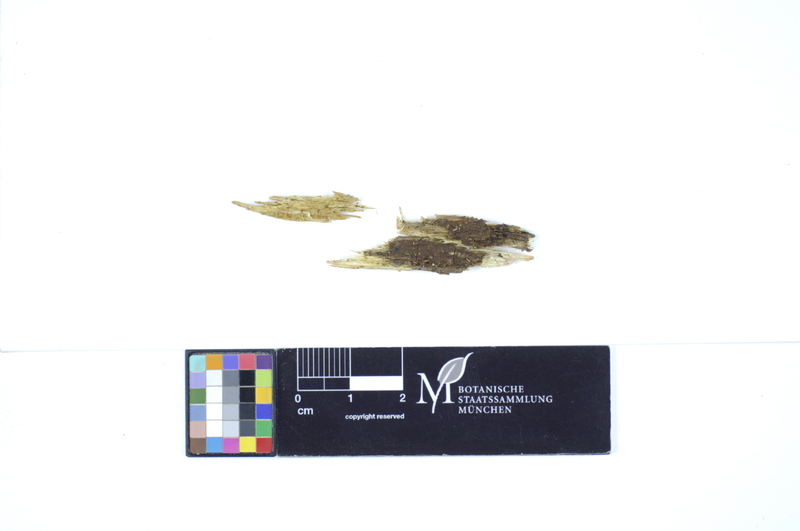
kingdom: Fungi
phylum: Basidiomycota
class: Agaricomycetes
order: Hymenochaetales
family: Hymenochaetaceae
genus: Hymenochaete
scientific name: Hymenochaete fuliginosa
